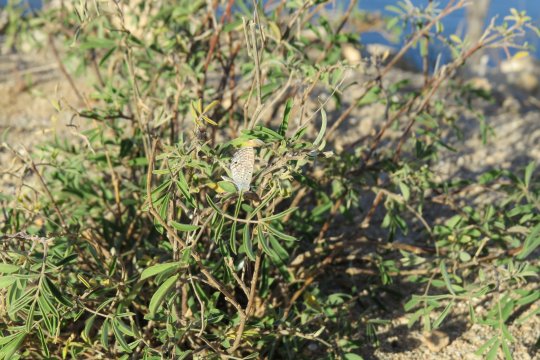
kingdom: Animalia
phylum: Arthropoda
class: Insecta
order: Lepidoptera
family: Lycaenidae
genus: Hemiargus
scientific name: Hemiargus ceraunus
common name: Ceraunus Blue
